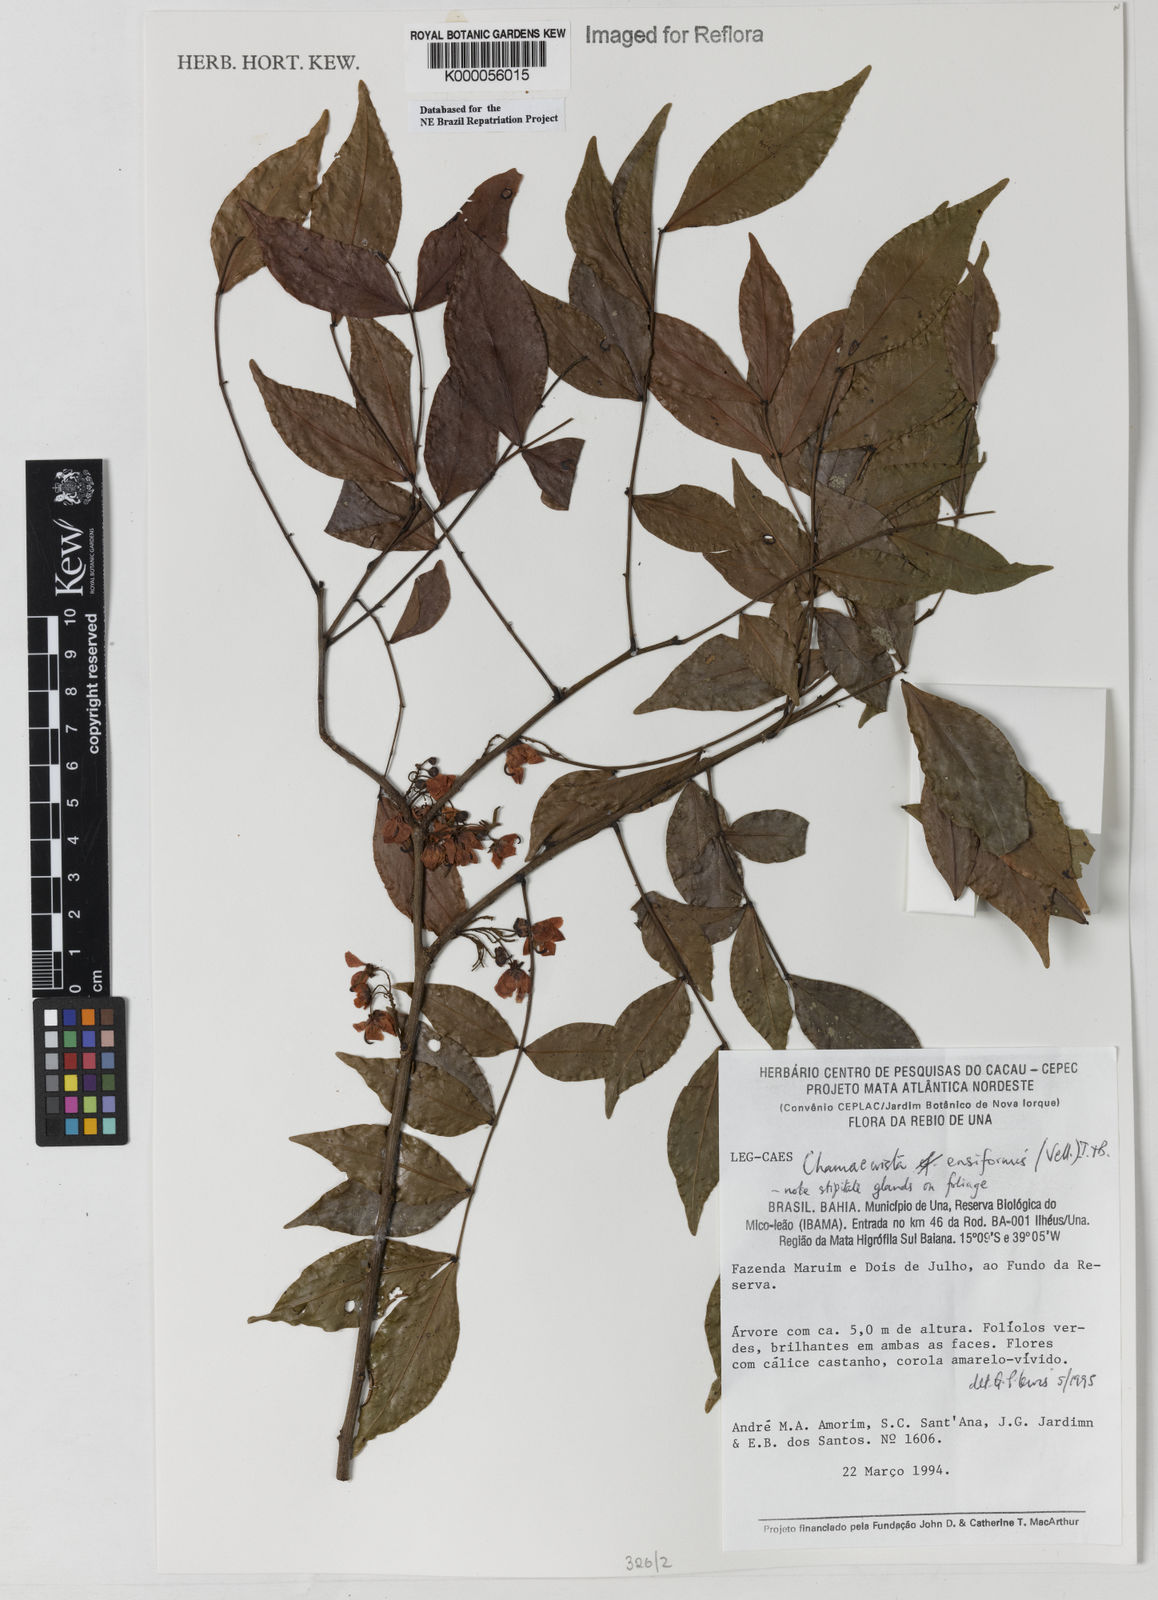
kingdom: Plantae
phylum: Tracheophyta
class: Magnoliopsida
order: Fabales
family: Fabaceae
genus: Chamaecrista
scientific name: Chamaecrista ensiformis
